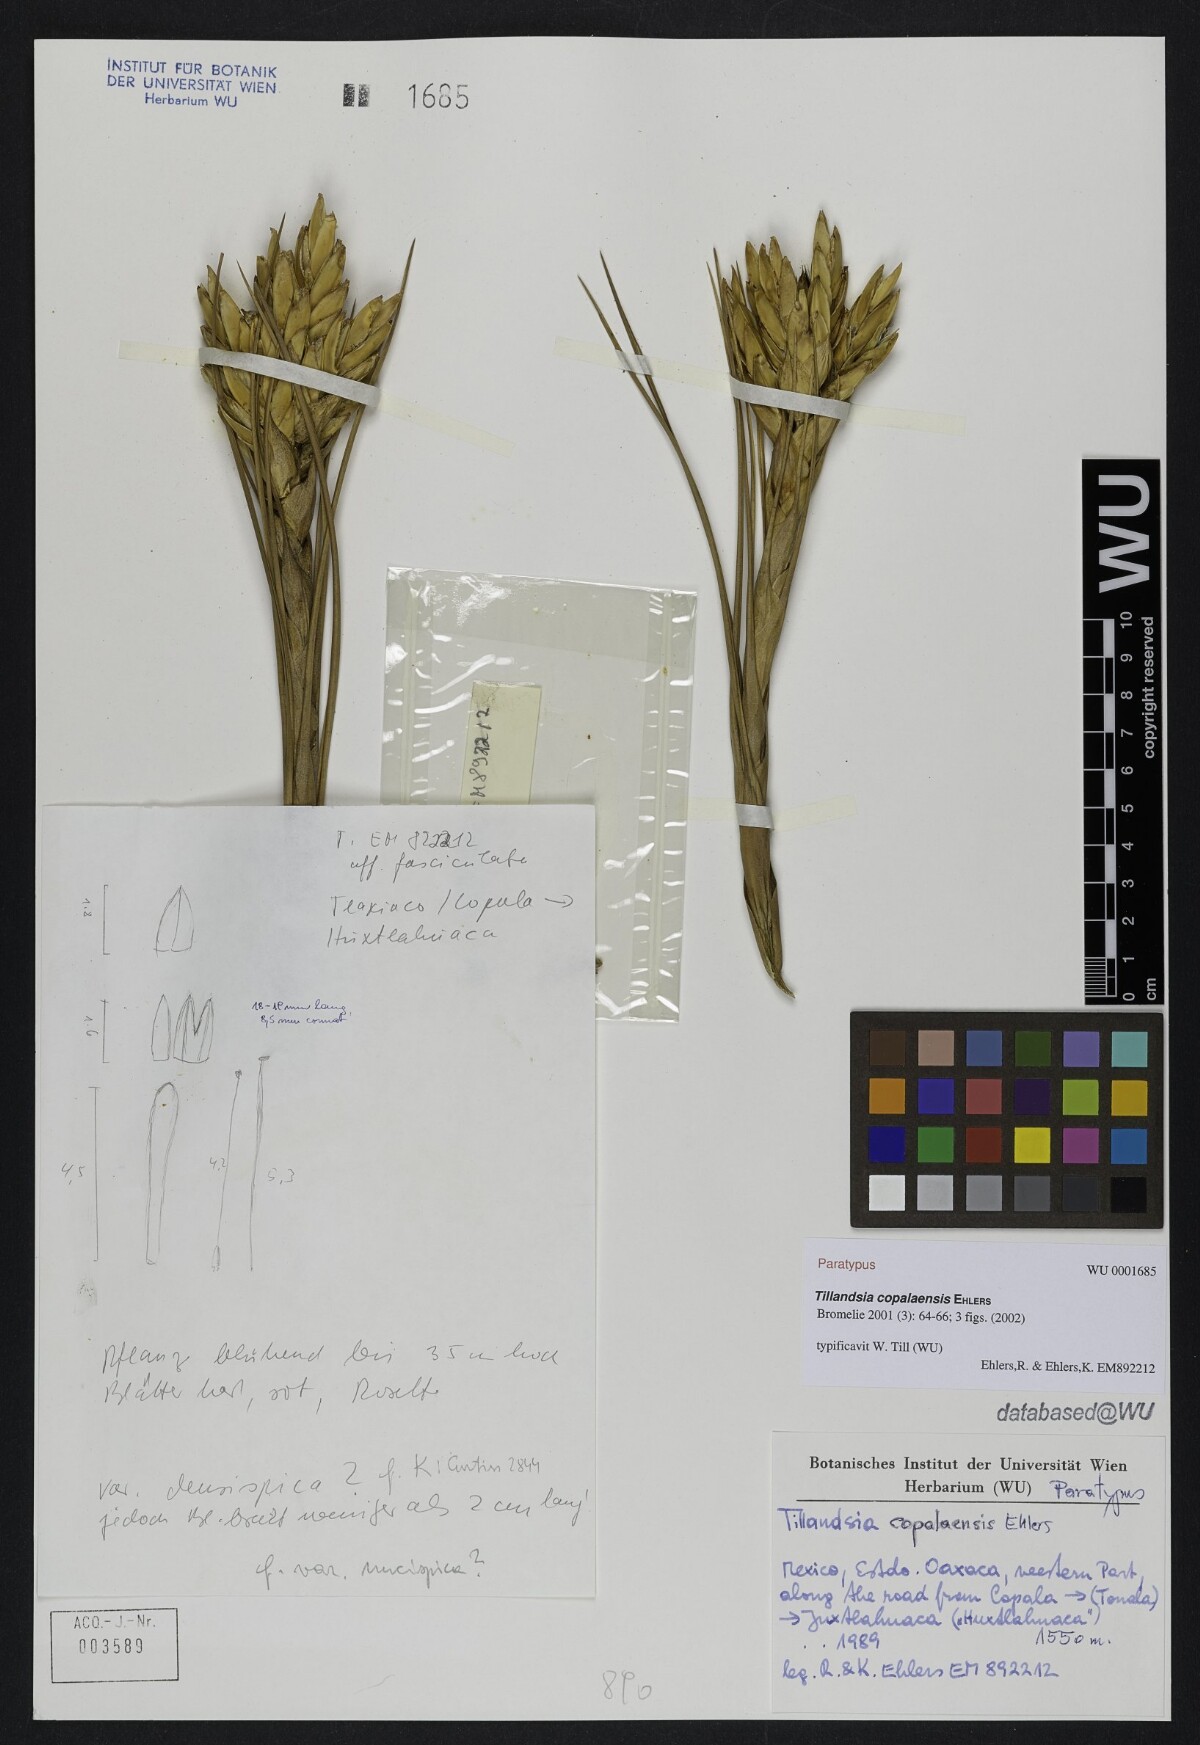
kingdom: Plantae
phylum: Tracheophyta
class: Liliopsida
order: Poales
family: Bromeliaceae
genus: Tillandsia
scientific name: Tillandsia copalaensis
